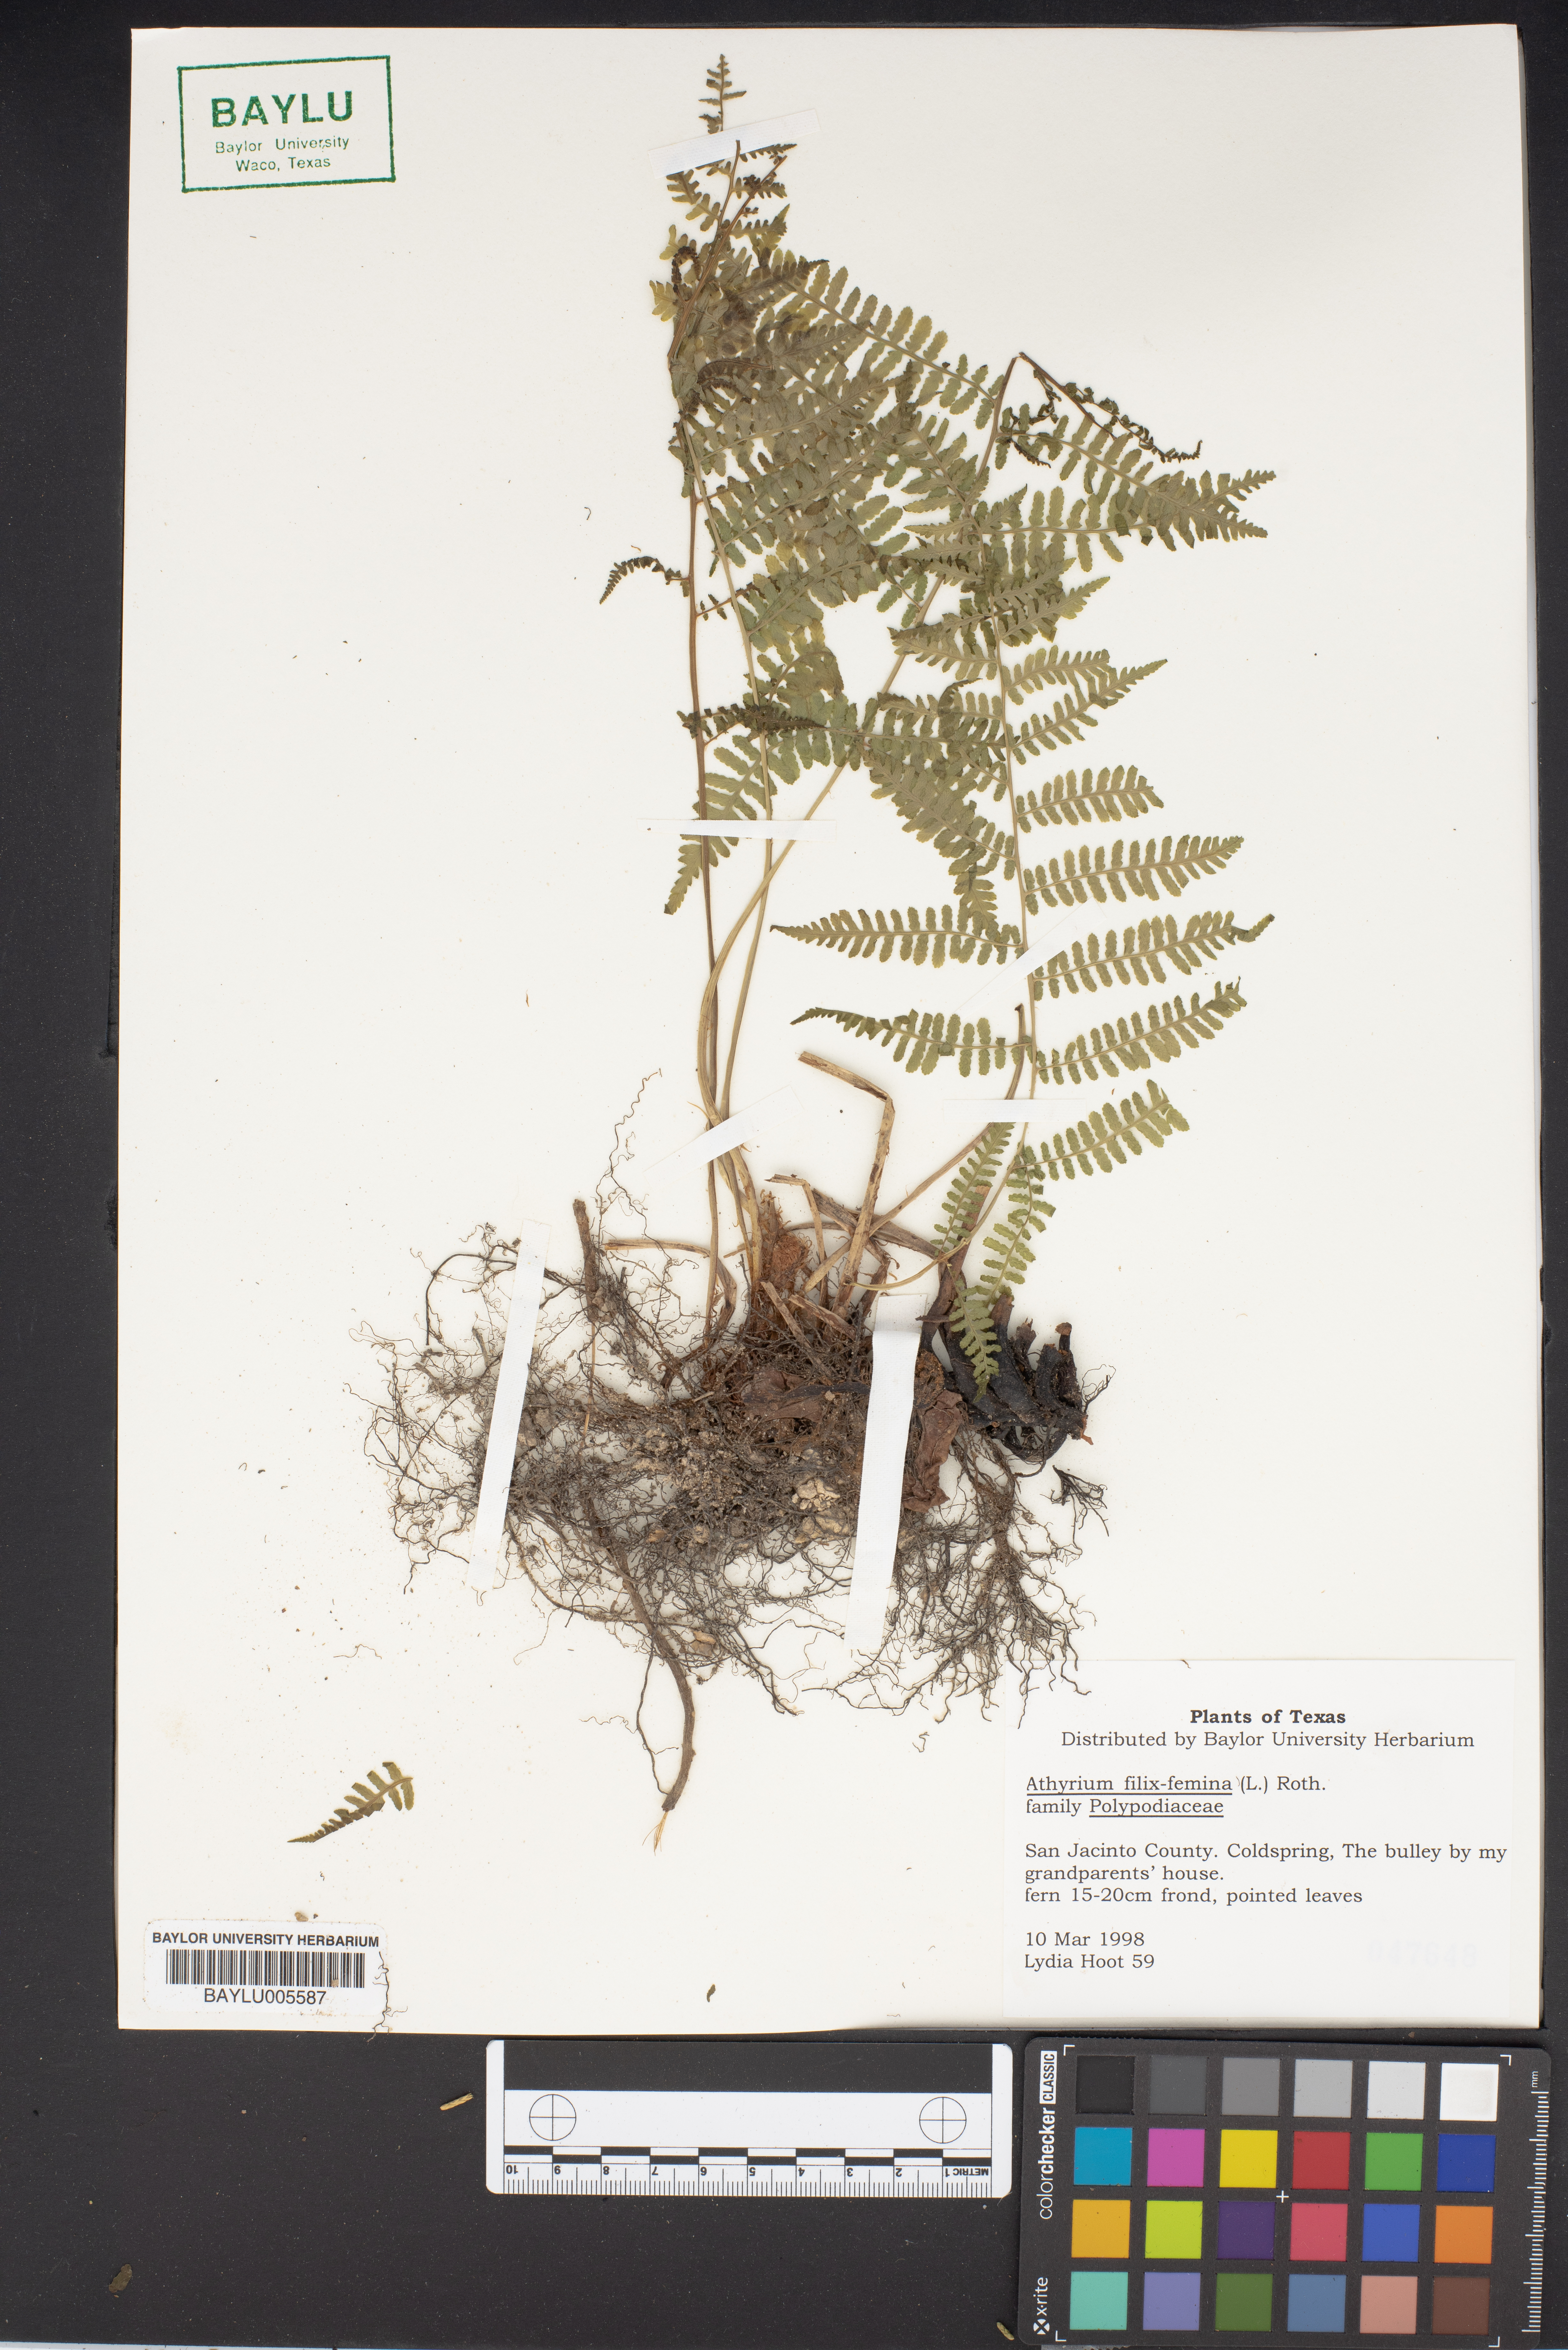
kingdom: Plantae
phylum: Tracheophyta
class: Polypodiopsida
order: Polypodiales
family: Athyriaceae
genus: Athyrium
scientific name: Athyrium filix-femina
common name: Lady fern
